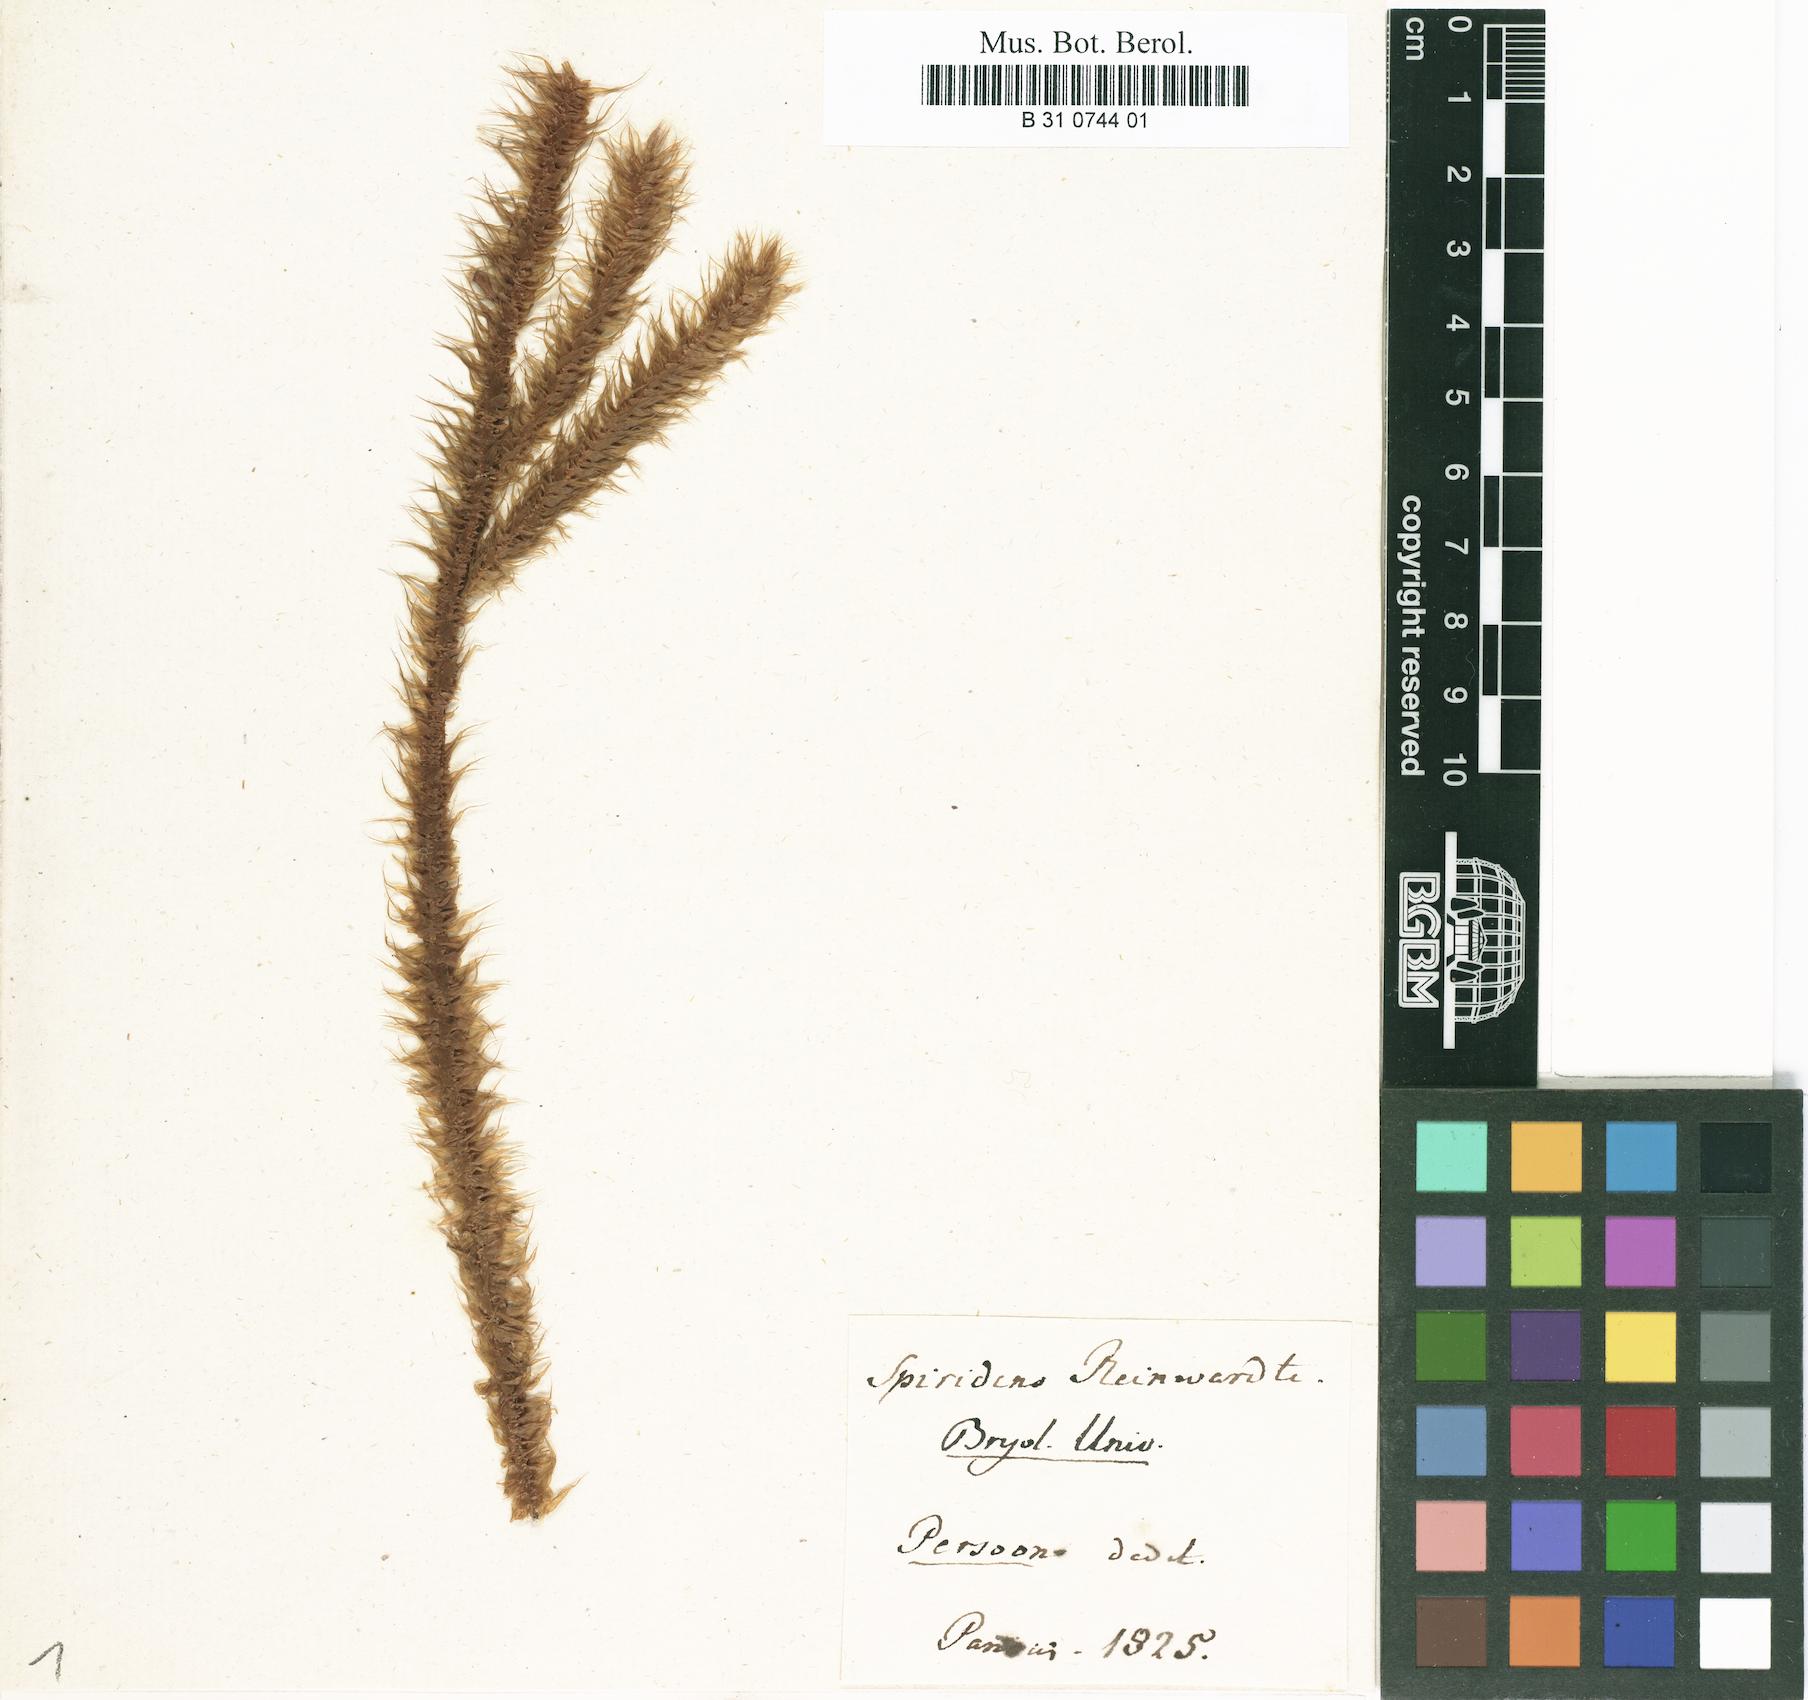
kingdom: Plantae
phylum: Bryophyta
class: Bryopsida
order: Hypnodendrales
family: Spiridentaceae
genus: Spiridens
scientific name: Spiridens reinwardtii
